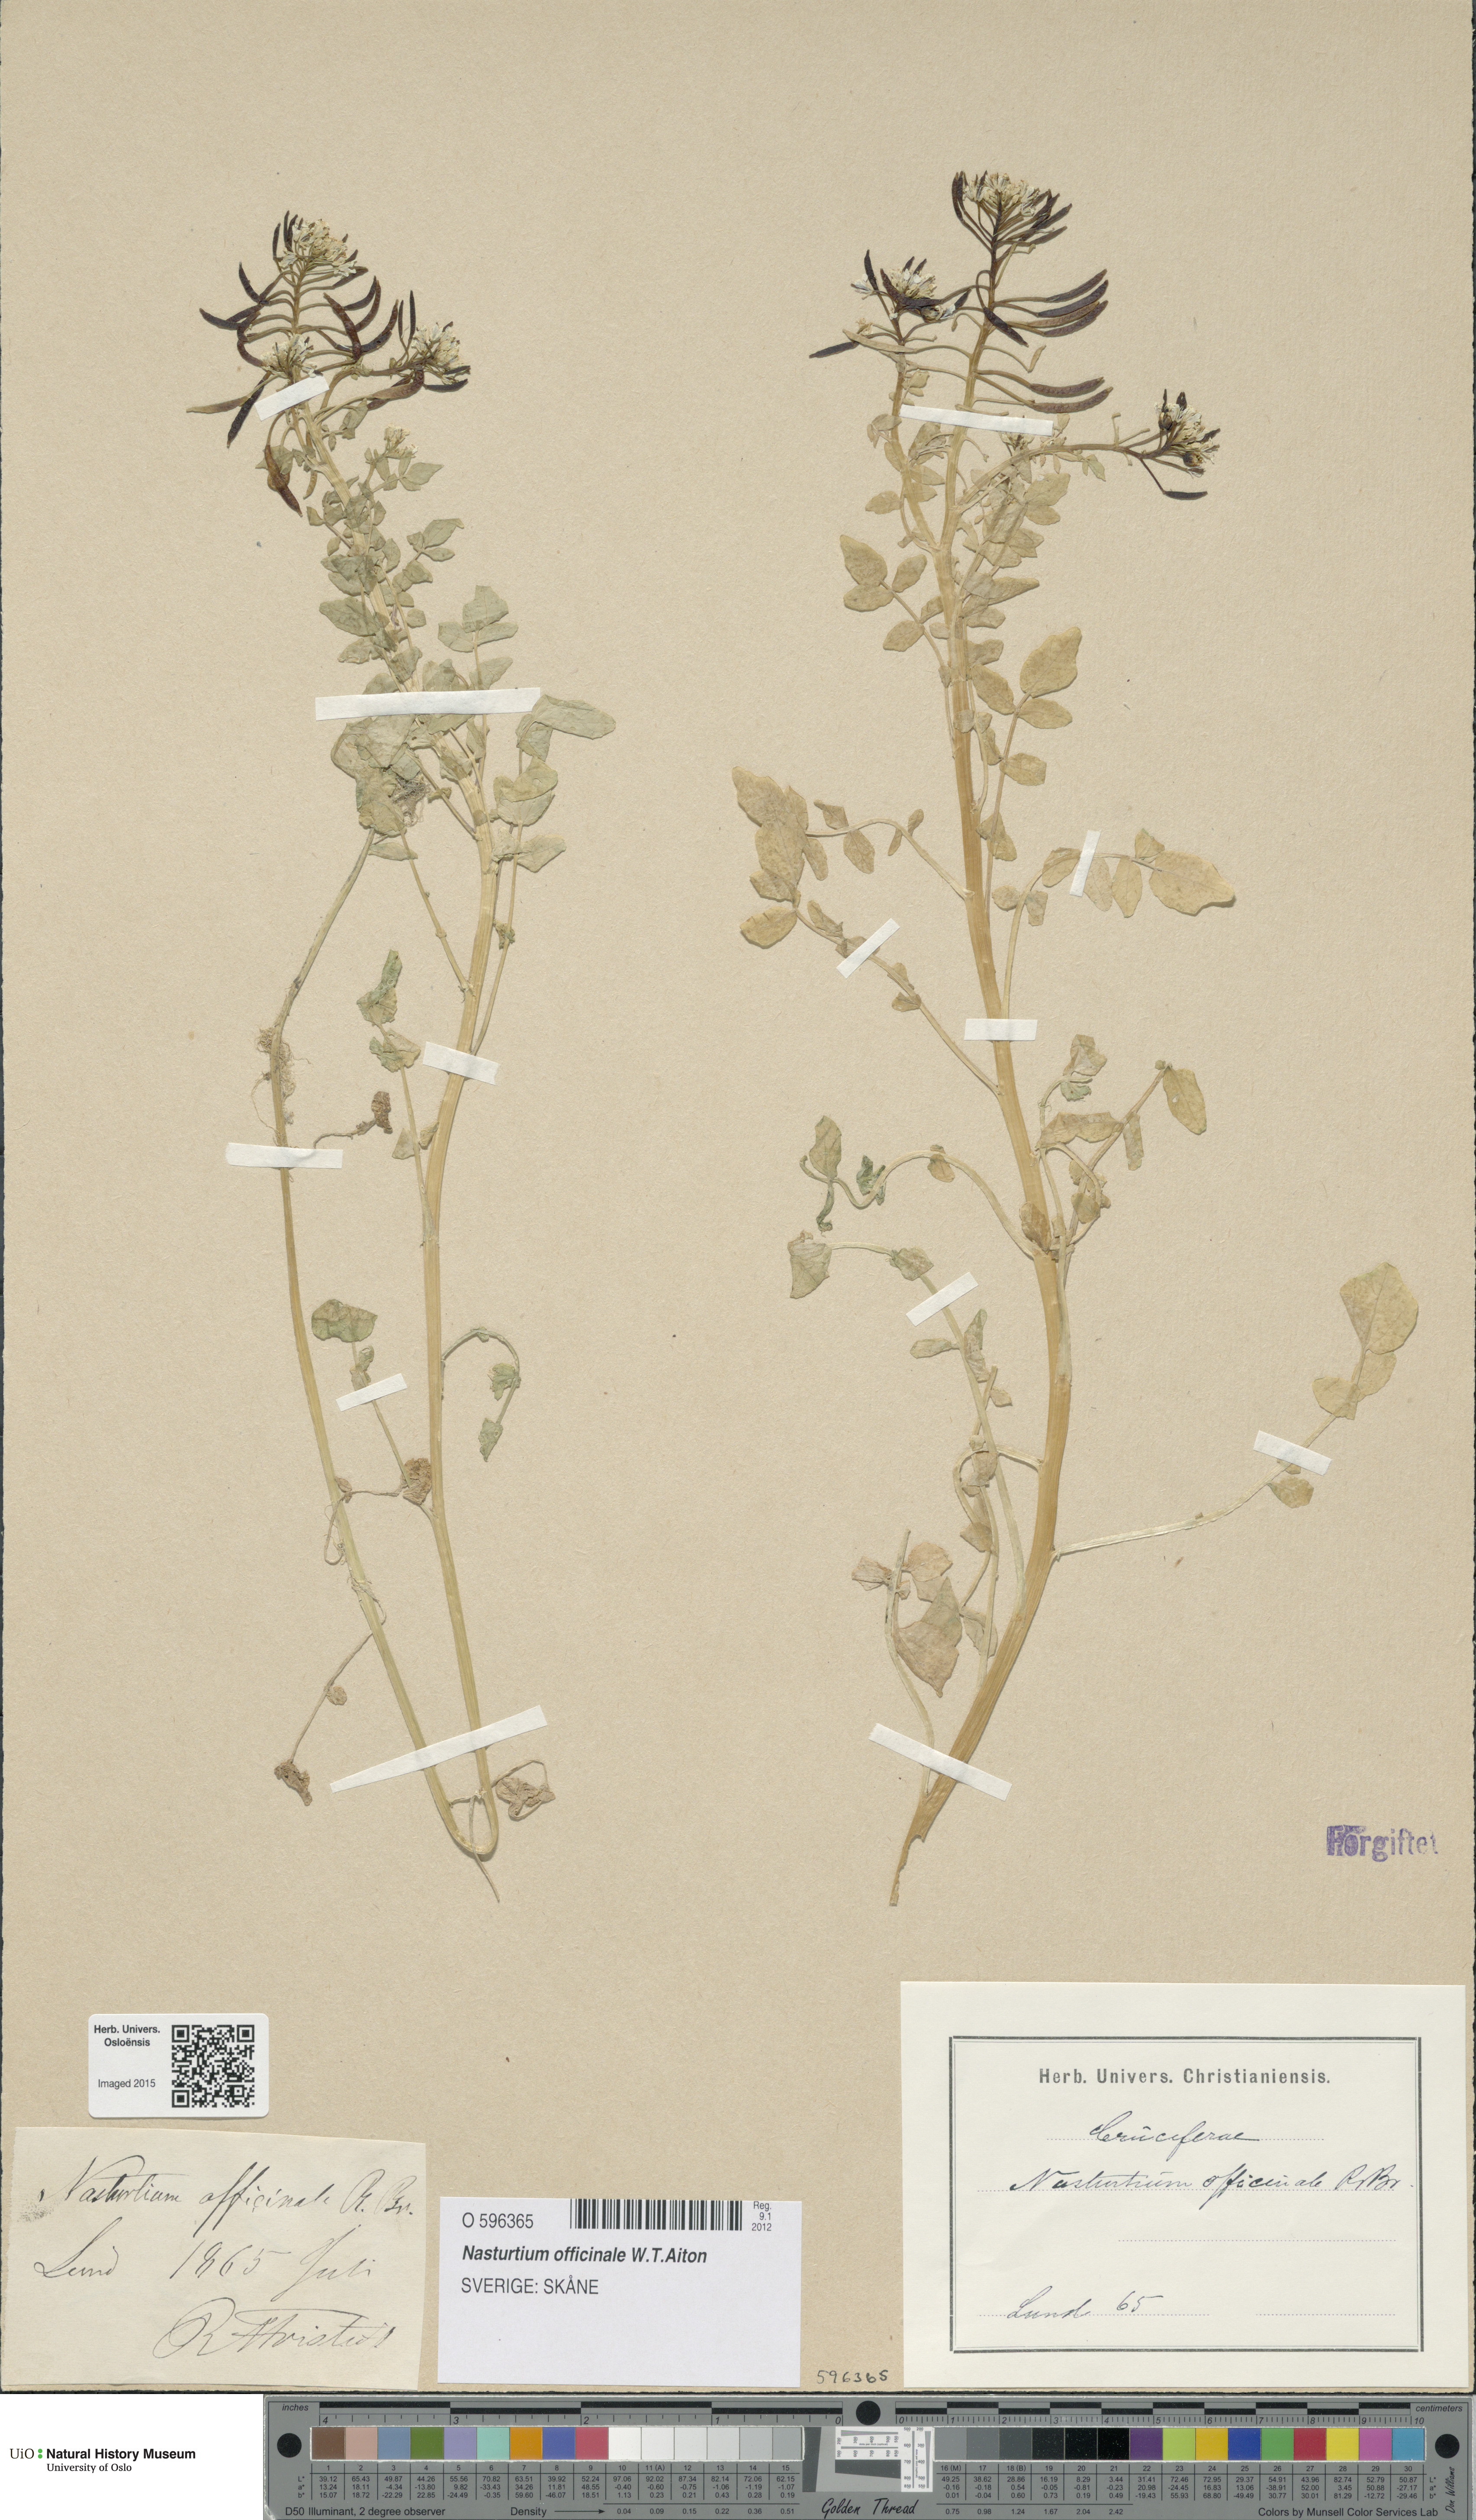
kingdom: Plantae
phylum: Tracheophyta
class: Magnoliopsida
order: Brassicales
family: Brassicaceae
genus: Nasturtium
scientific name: Nasturtium officinale
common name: Watercress
